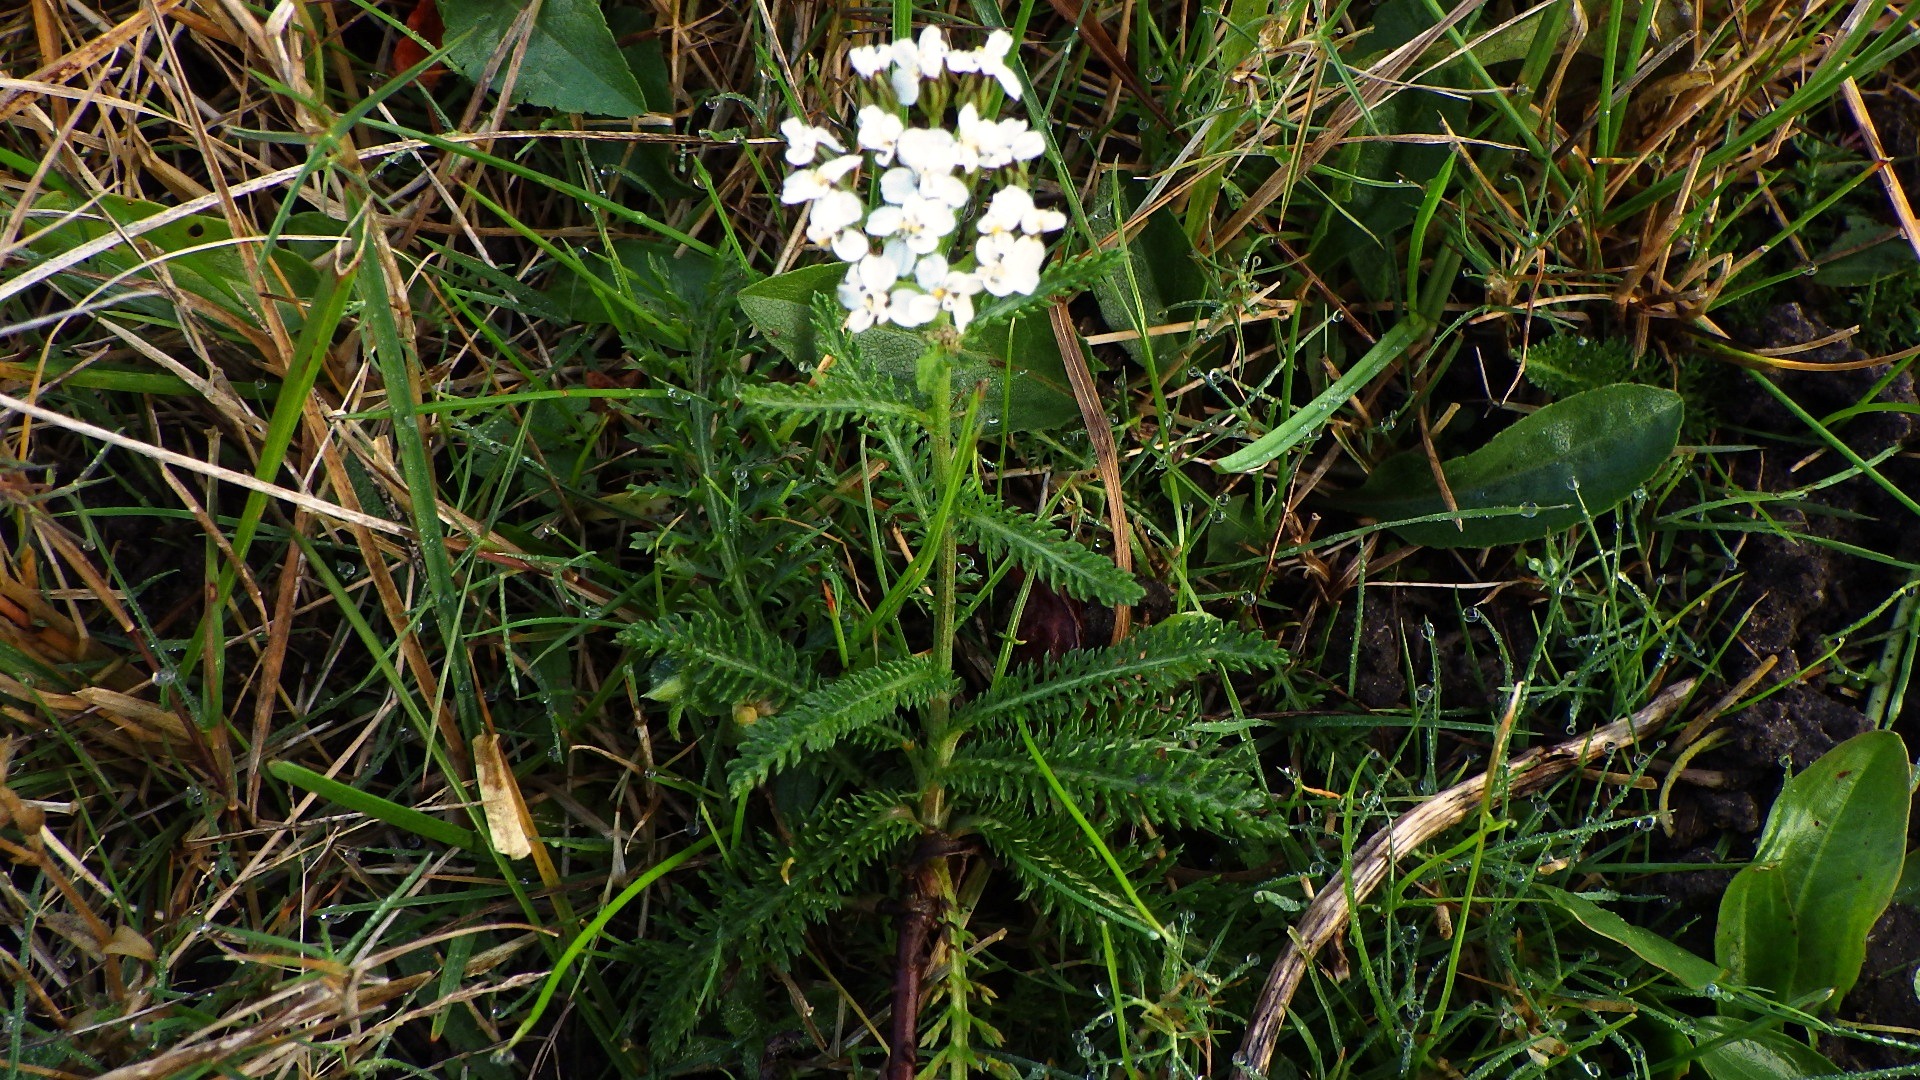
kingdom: Plantae
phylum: Tracheophyta
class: Magnoliopsida
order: Asterales
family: Asteraceae
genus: Achillea
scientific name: Achillea millefolium
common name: Almindelig røllike
